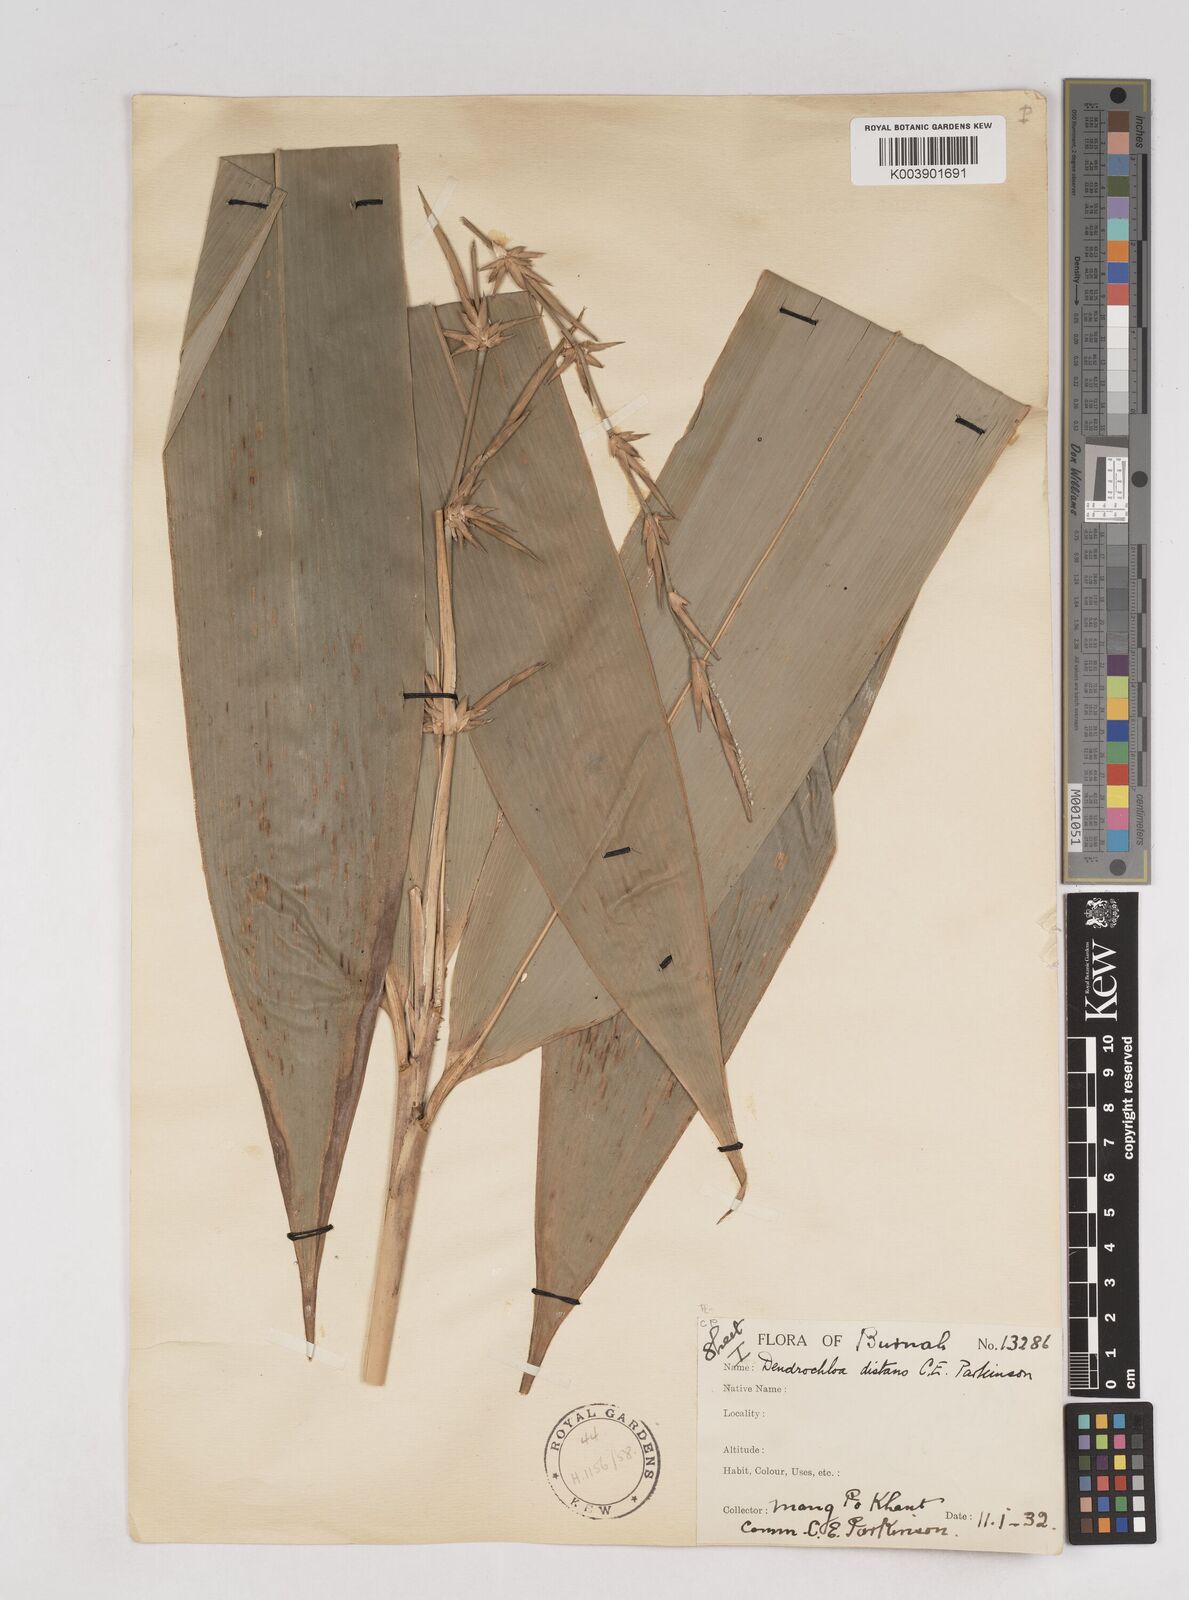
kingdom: Plantae
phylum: Tracheophyta
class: Liliopsida
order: Poales
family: Poaceae
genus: Schizostachyum
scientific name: Schizostachyum distans
